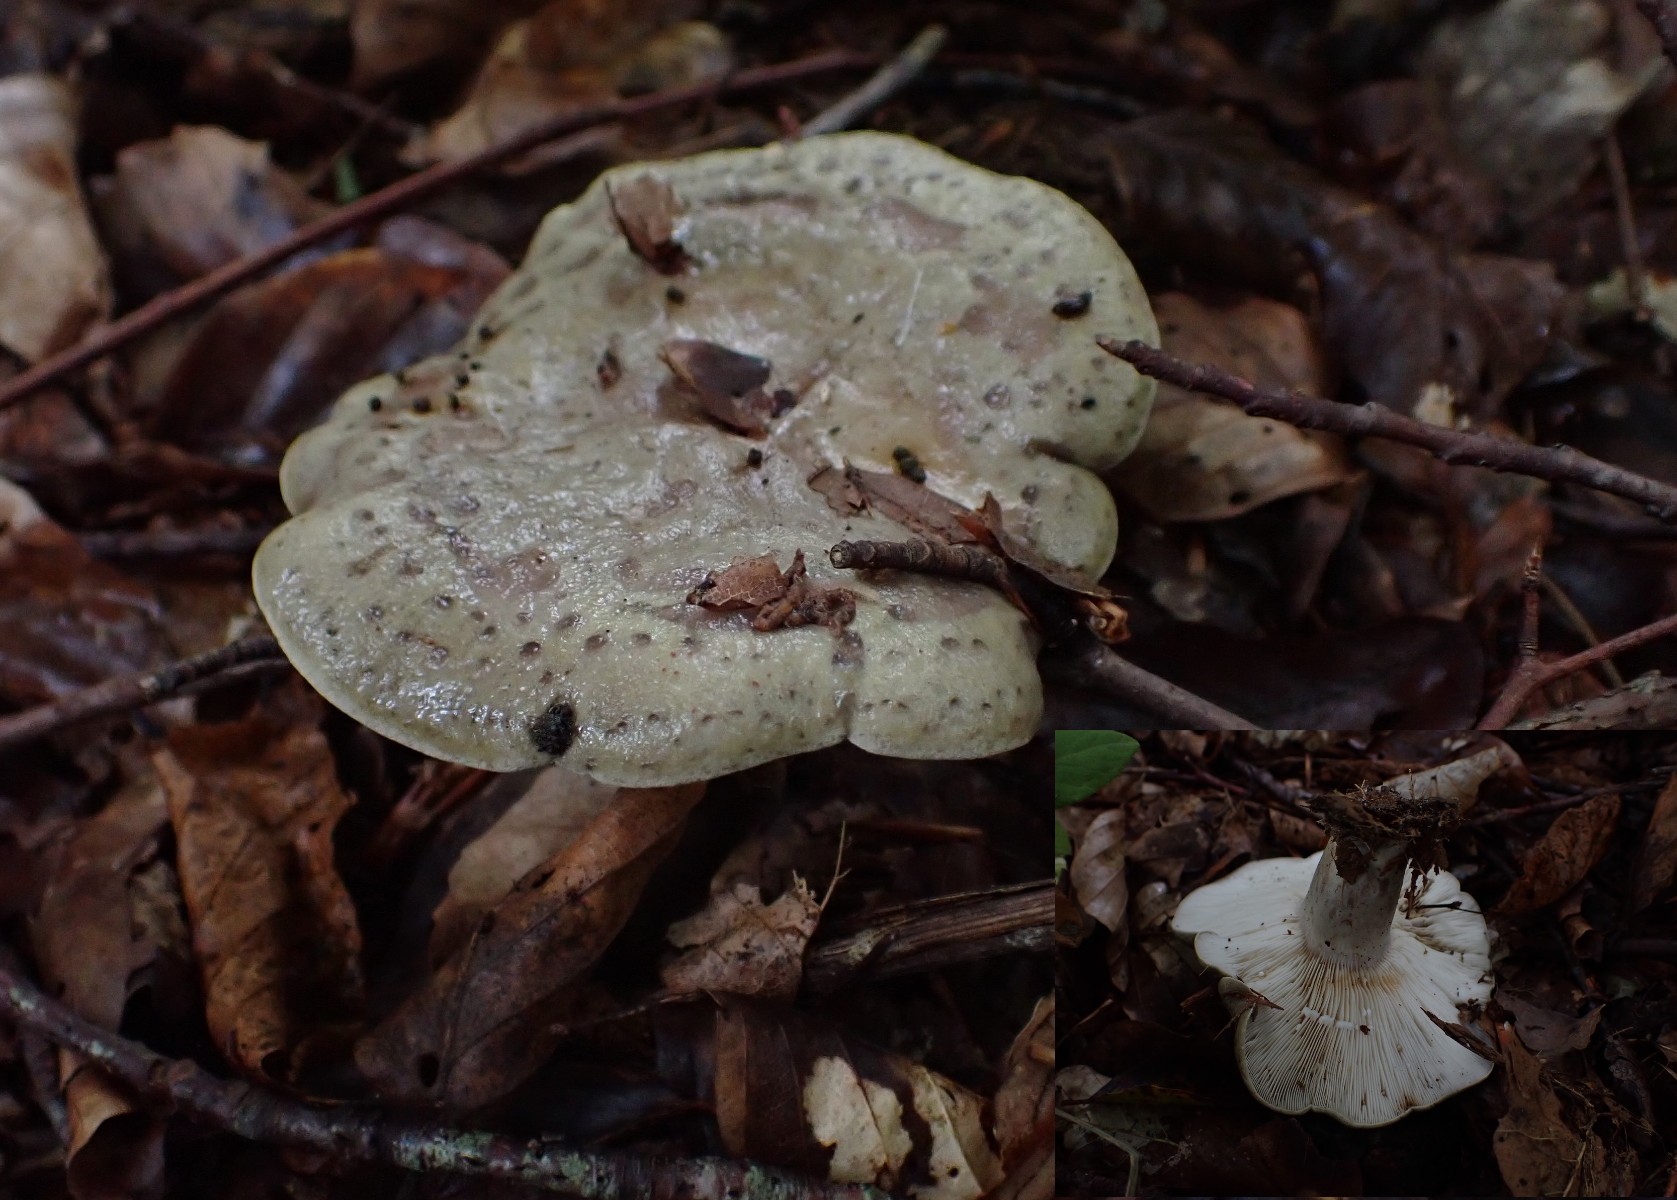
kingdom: Fungi
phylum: Basidiomycota
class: Agaricomycetes
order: Russulales
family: Russulaceae
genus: Lactarius
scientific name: Lactarius blennius
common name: dråbeplettet mælkehat
